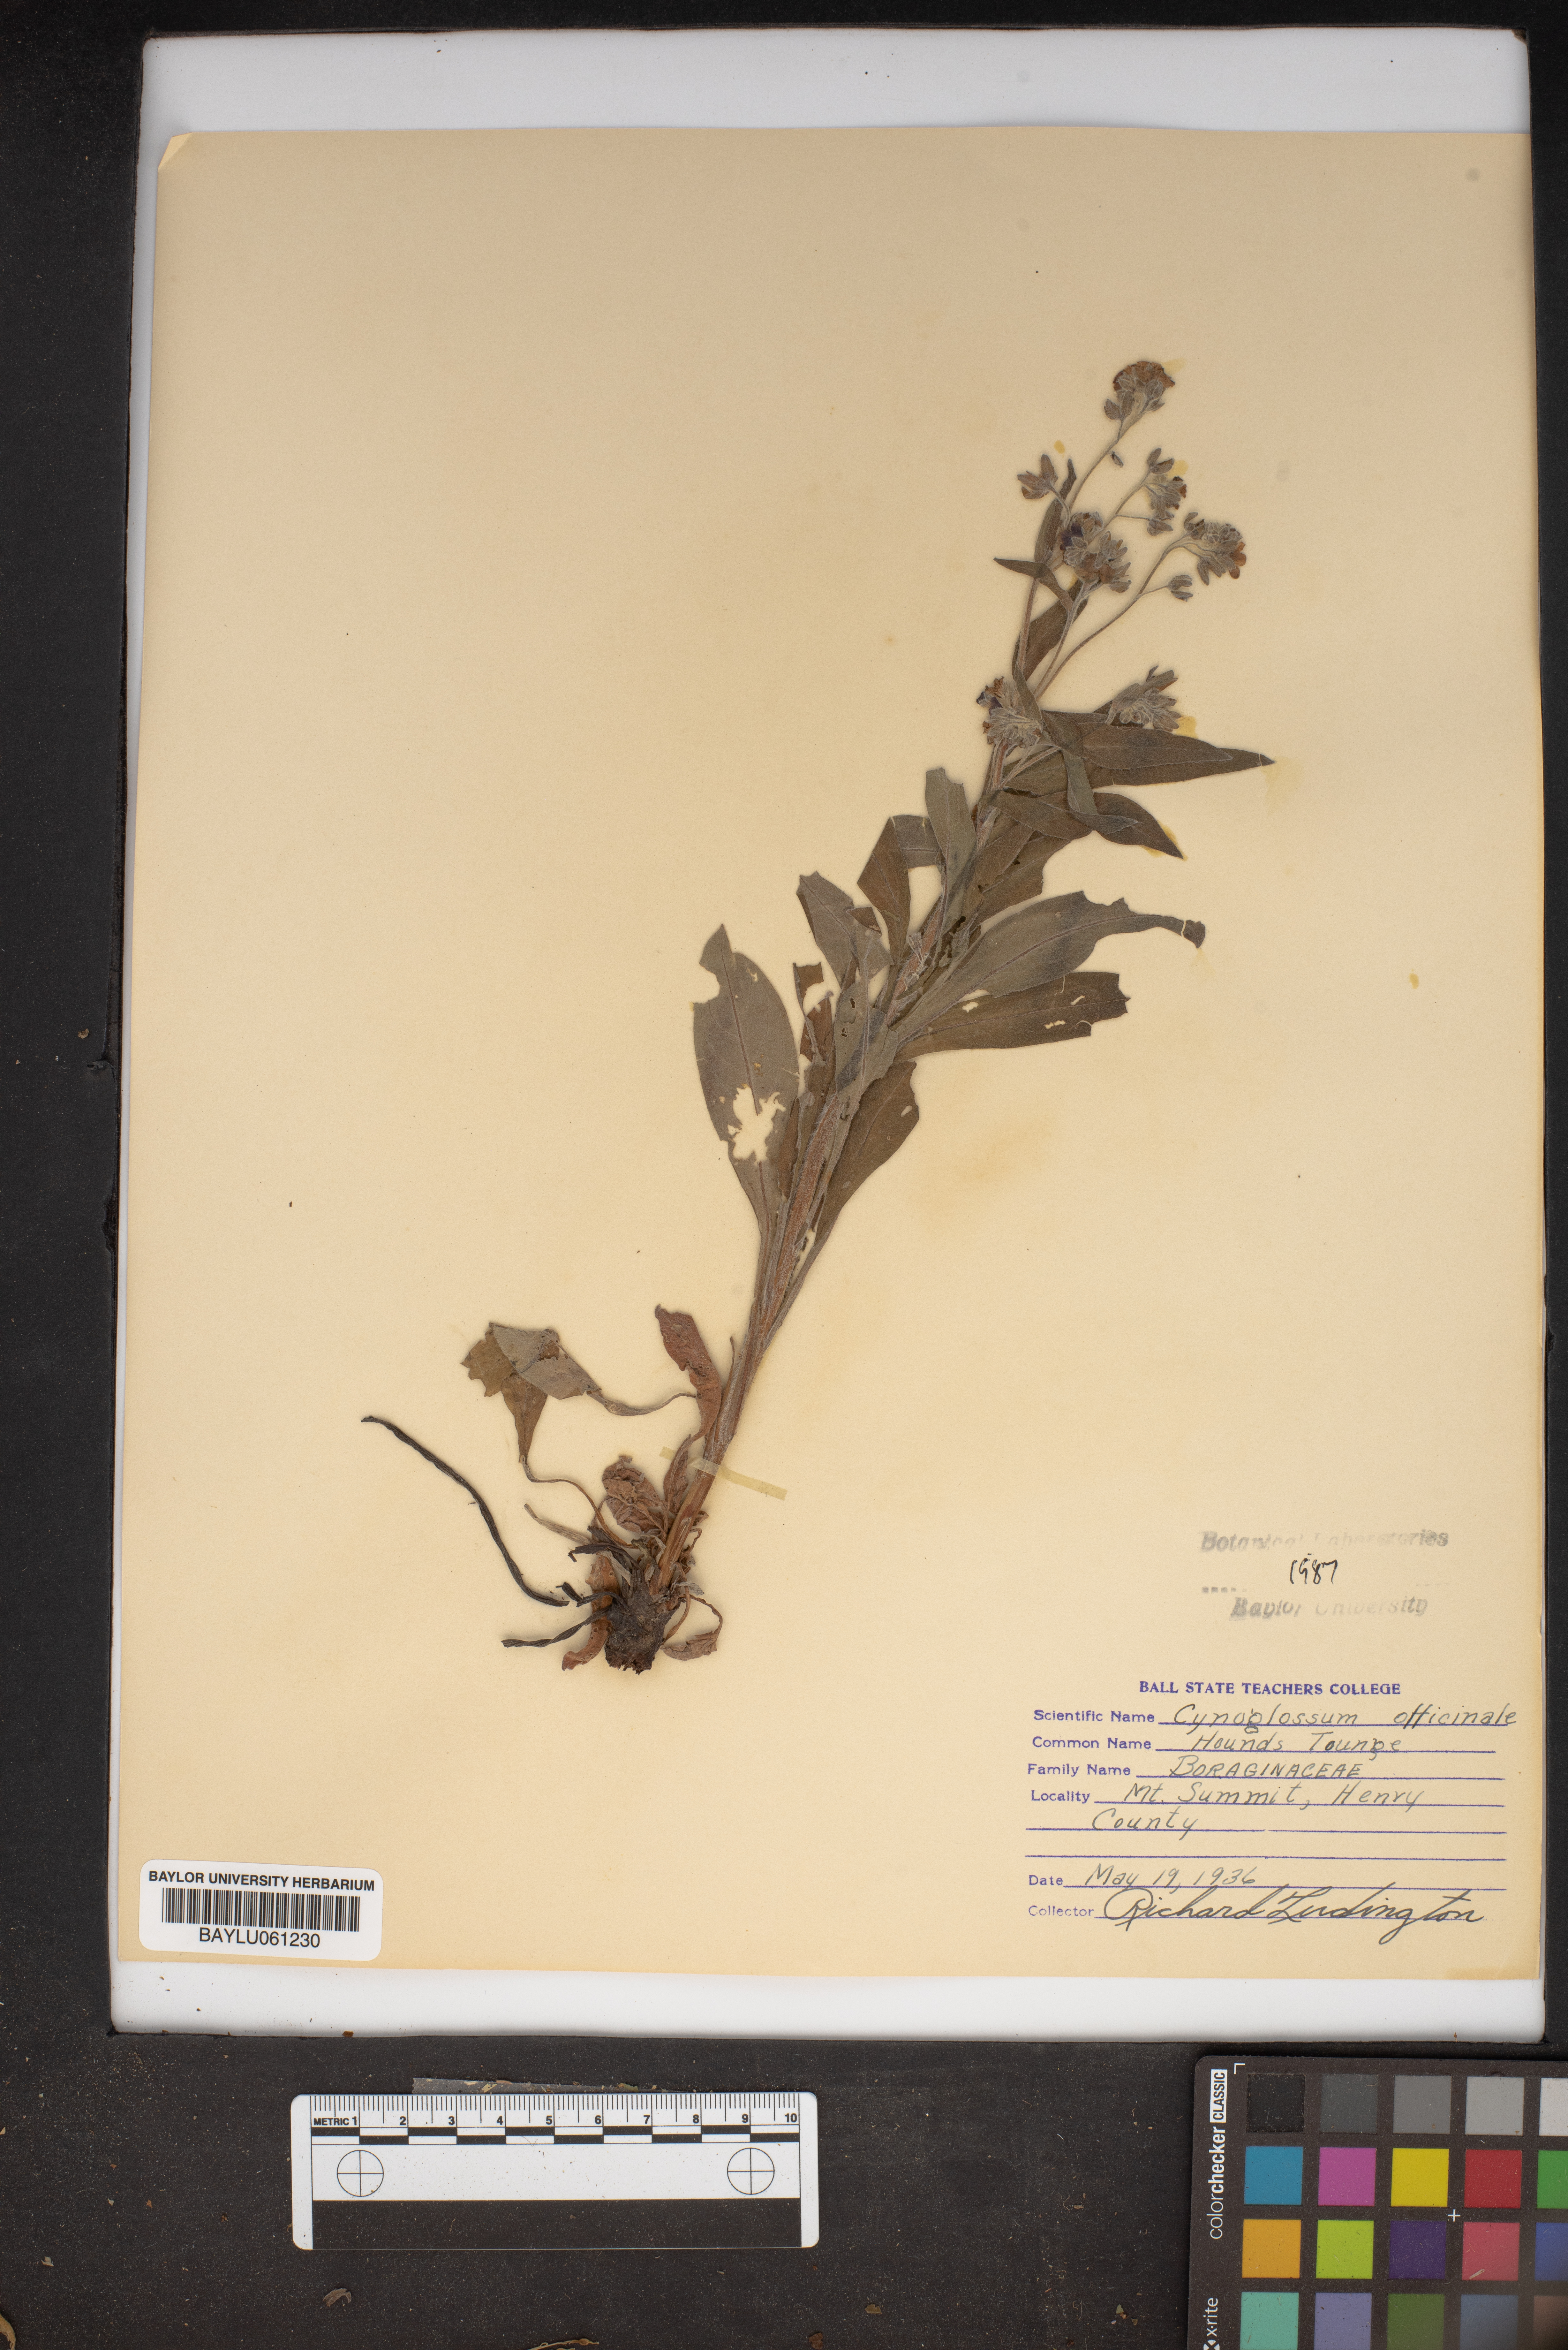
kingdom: Plantae
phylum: Tracheophyta
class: Magnoliopsida
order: Boraginales
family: Boraginaceae
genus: Cynoglossum
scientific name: Cynoglossum officinale
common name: Hound's-tongue
